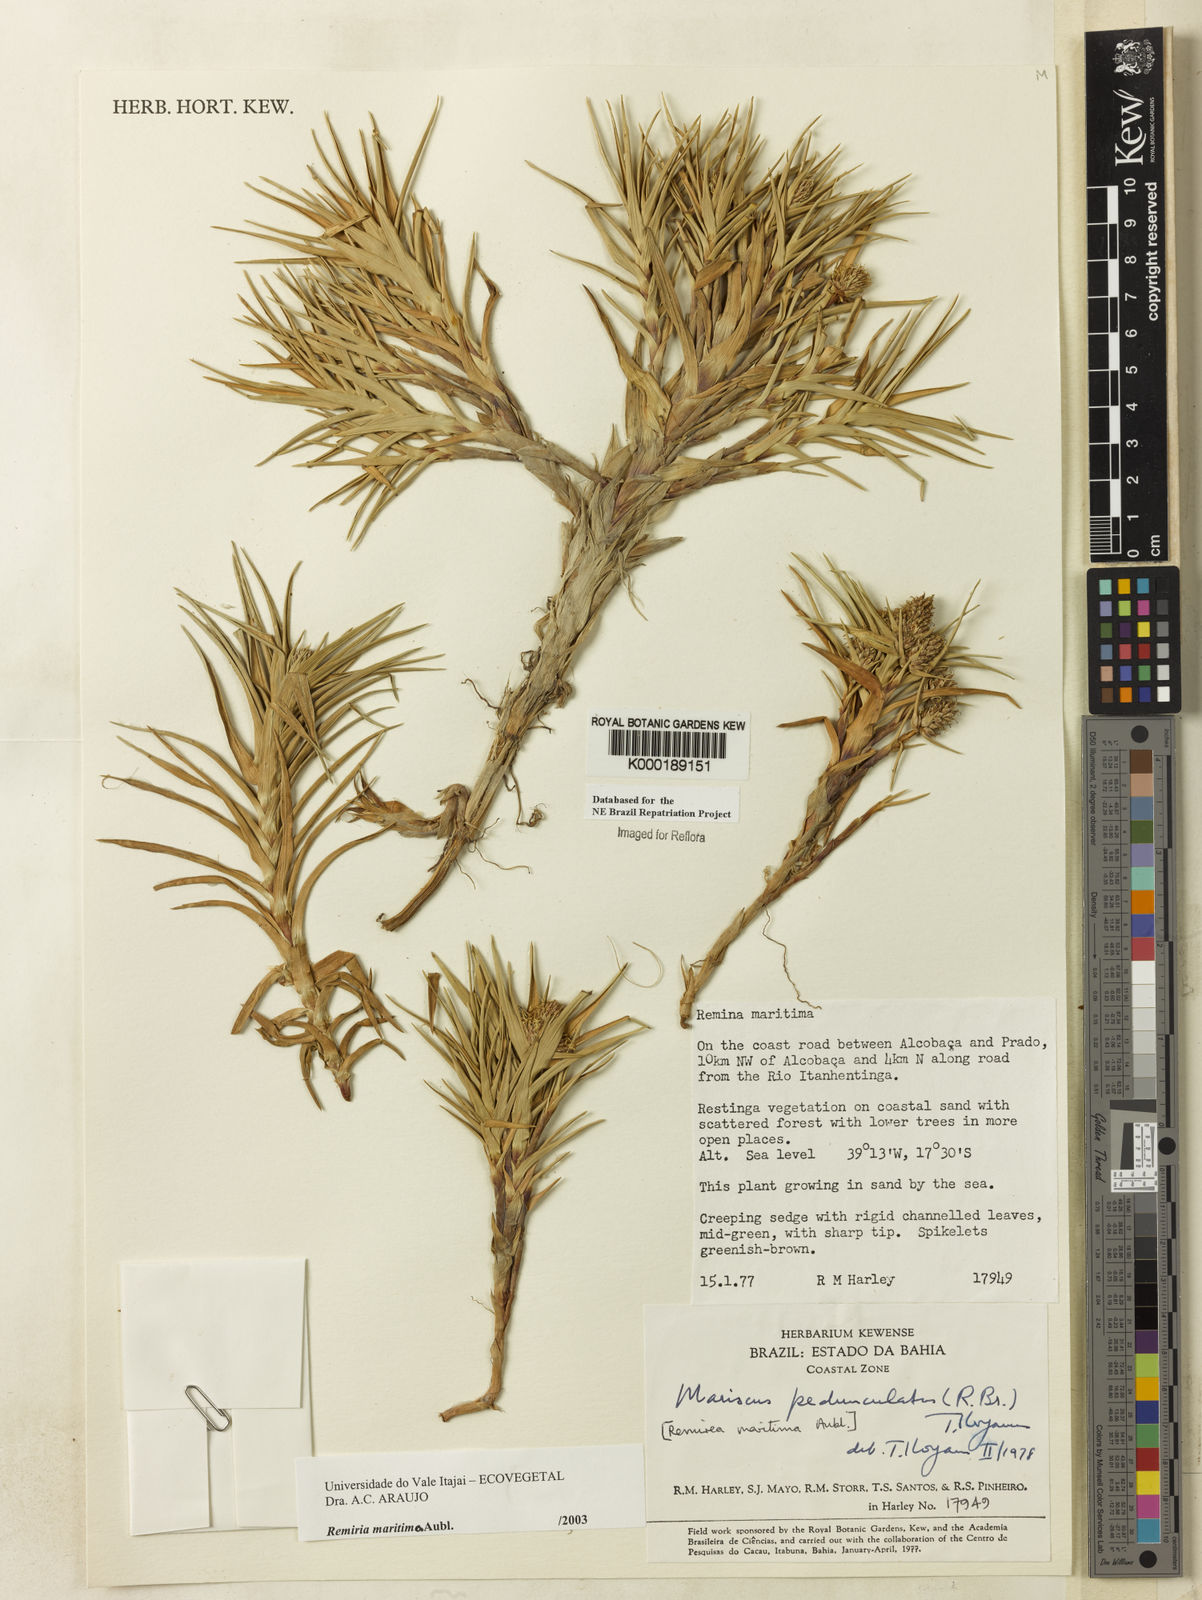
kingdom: Plantae
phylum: Tracheophyta
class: Liliopsida
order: Poales
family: Cyperaceae
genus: Cyperus
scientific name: Cyperus pedunculatus
